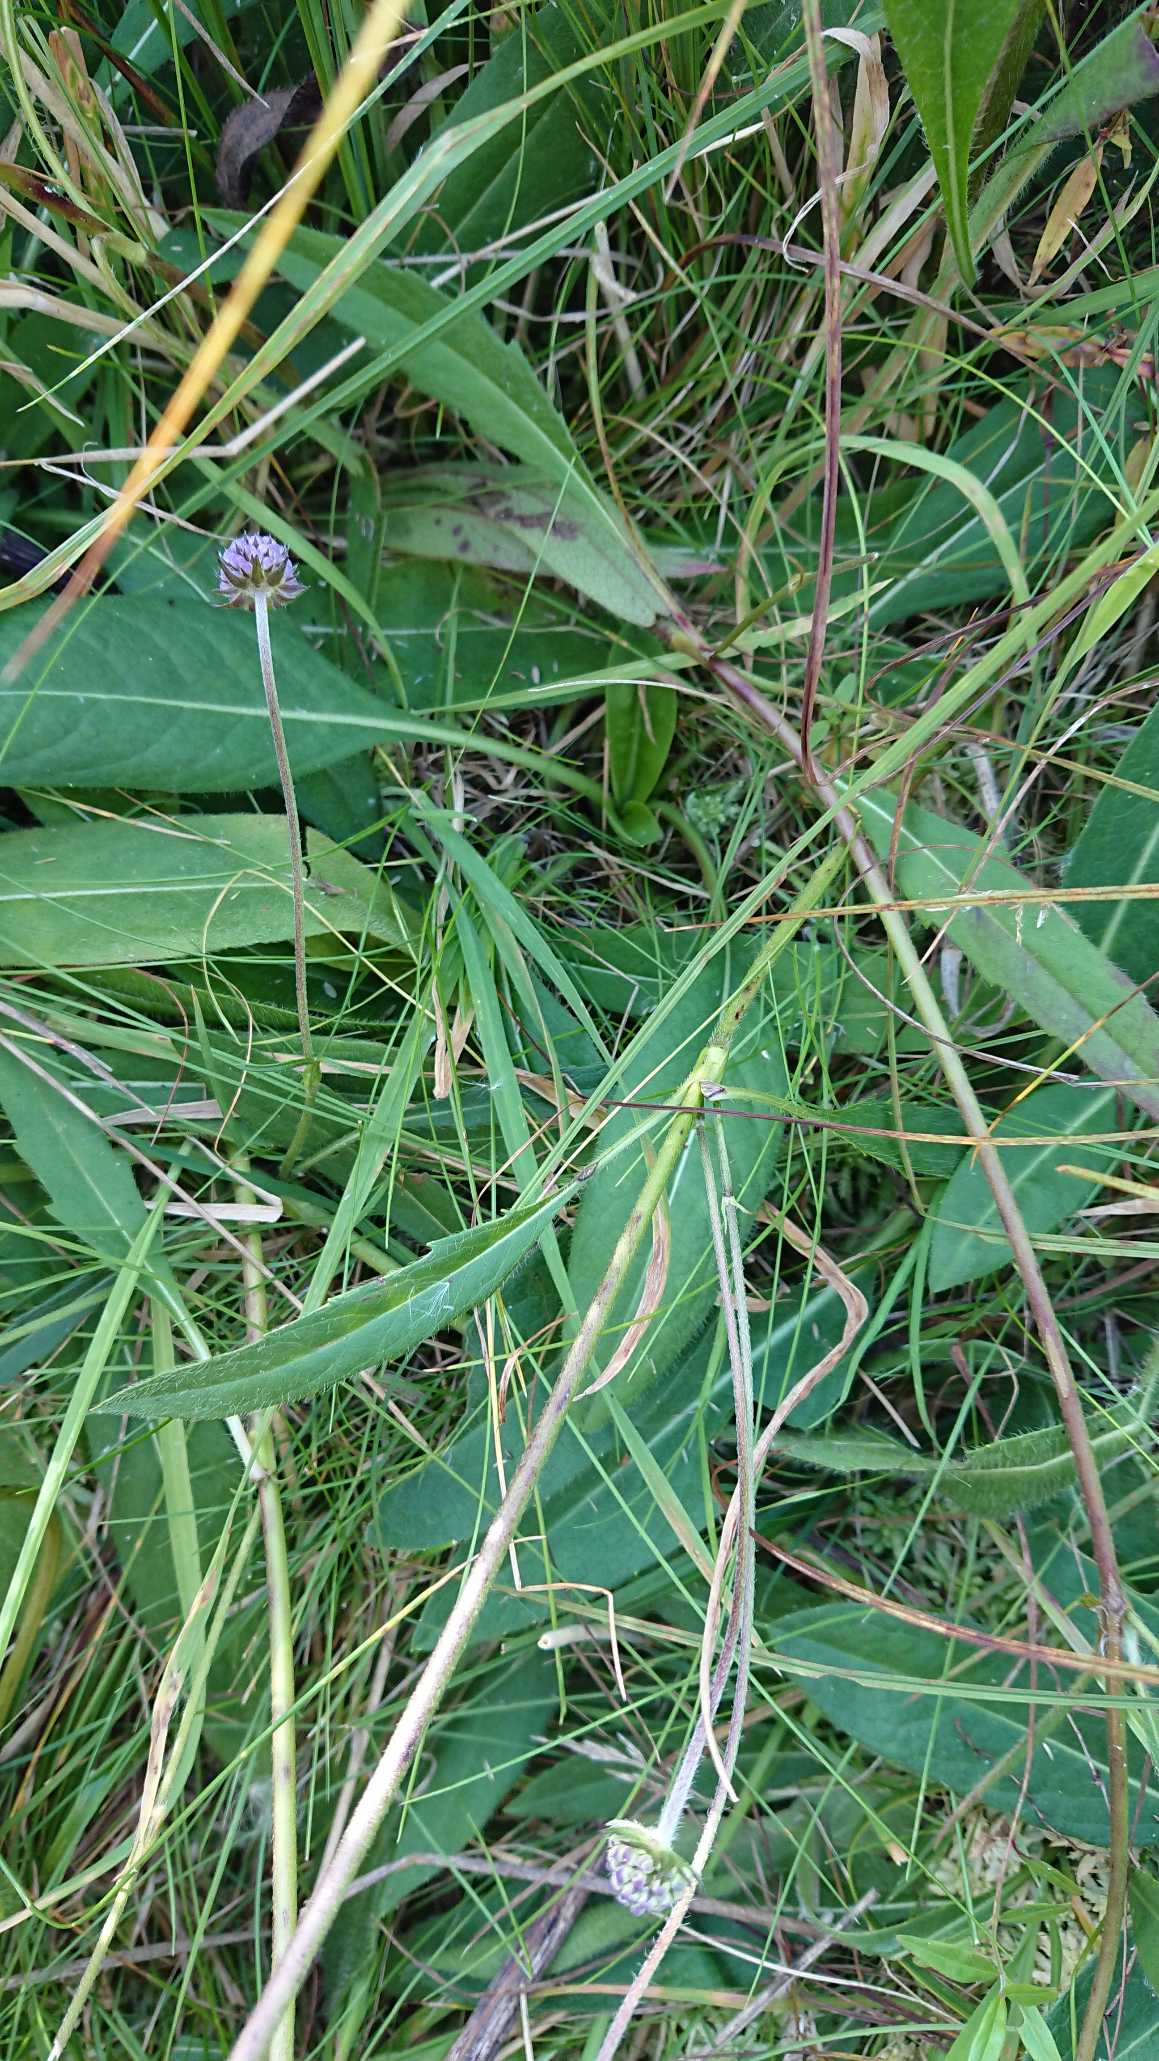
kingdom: Plantae
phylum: Tracheophyta
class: Magnoliopsida
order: Dipsacales
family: Caprifoliaceae
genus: Succisa
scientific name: Succisa pratensis
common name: Djævelsbid
